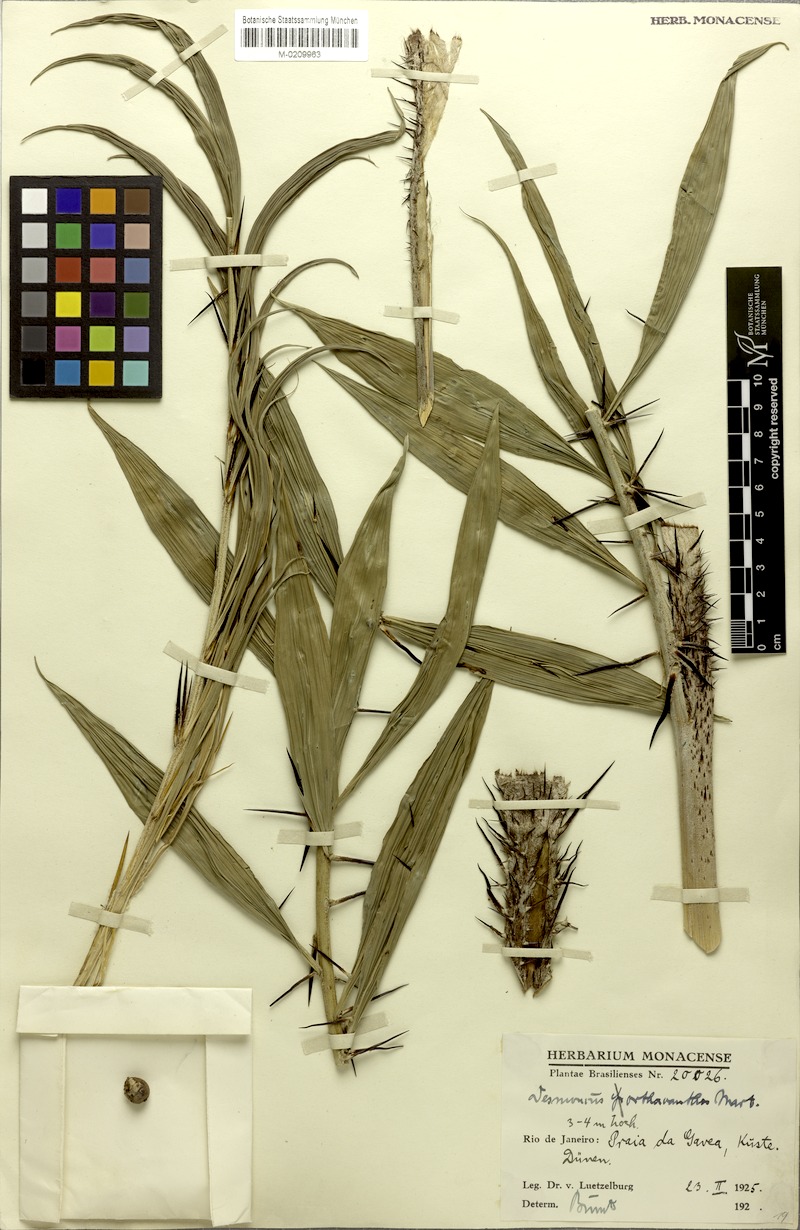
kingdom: Plantae
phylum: Tracheophyta
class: Liliopsida
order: Arecales
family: Arecaceae
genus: Desmoncus
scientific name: Desmoncus orthacanthos
